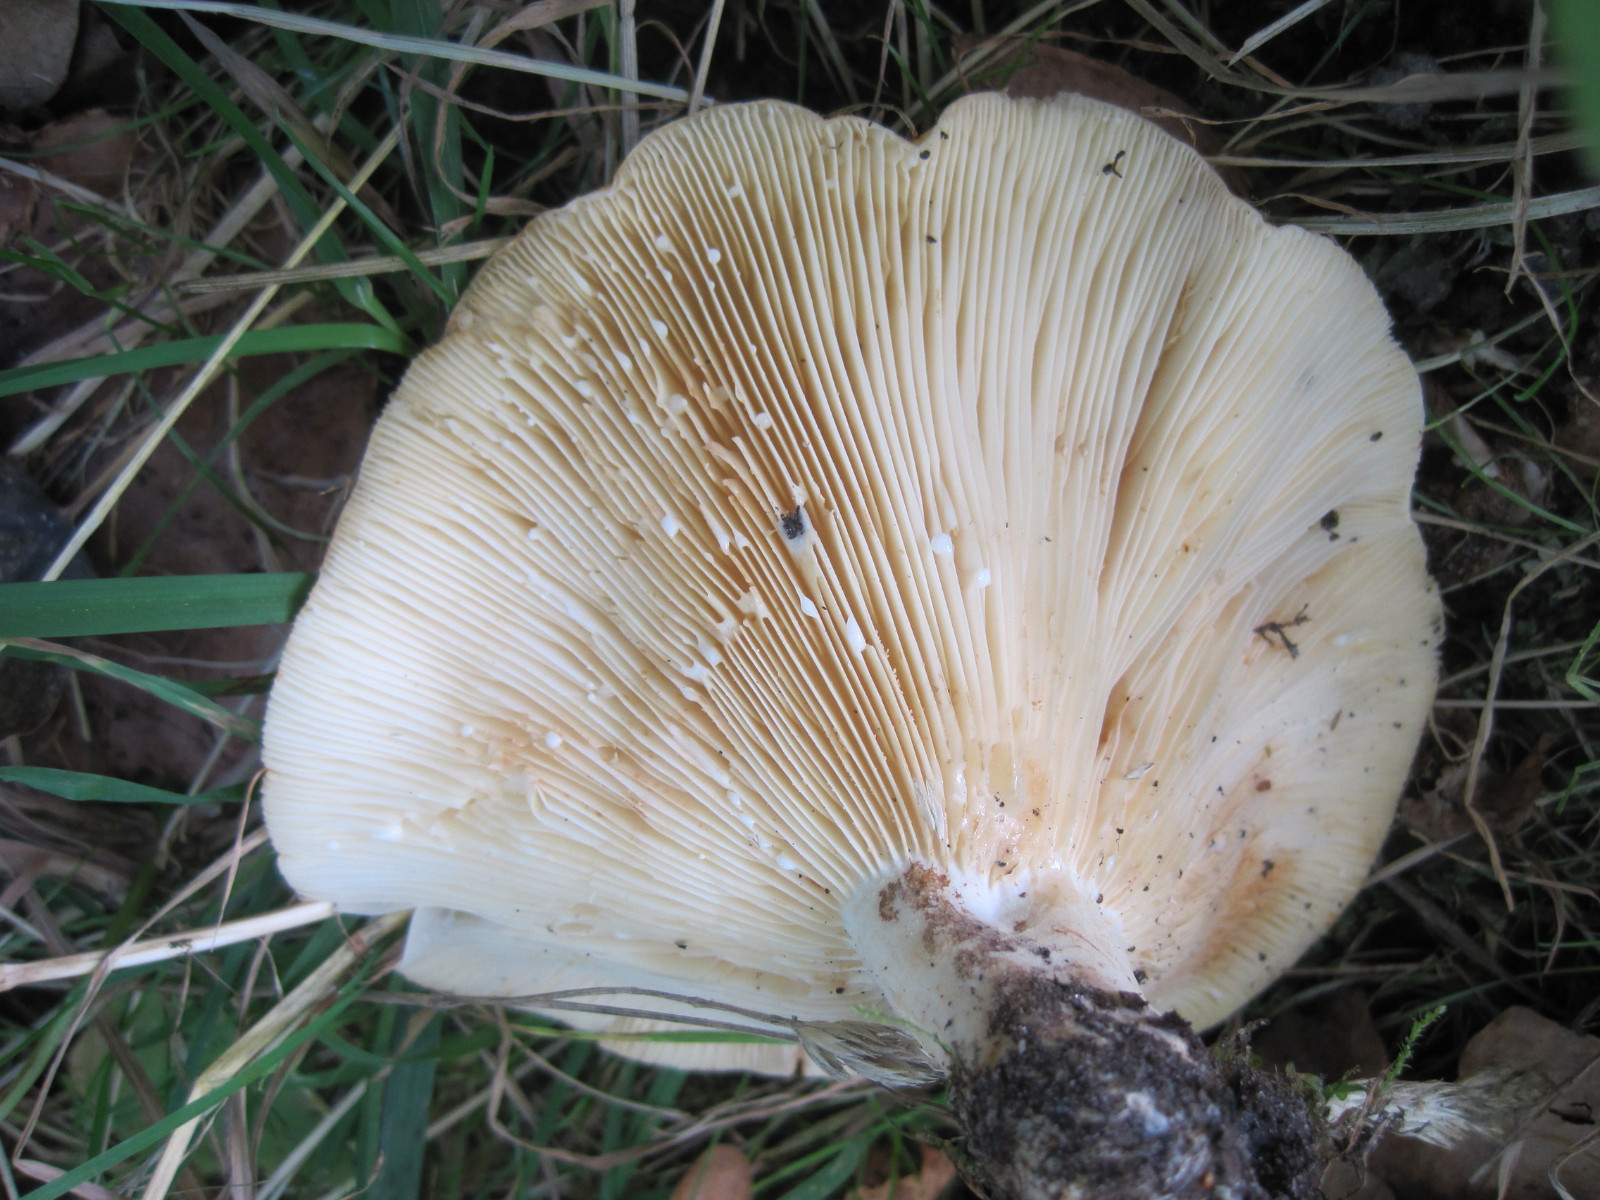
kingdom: Fungi
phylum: Basidiomycota
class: Agaricomycetes
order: Russulales
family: Russulaceae
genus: Lactarius
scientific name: Lactarius evosmus
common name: bæltet mælkehat
